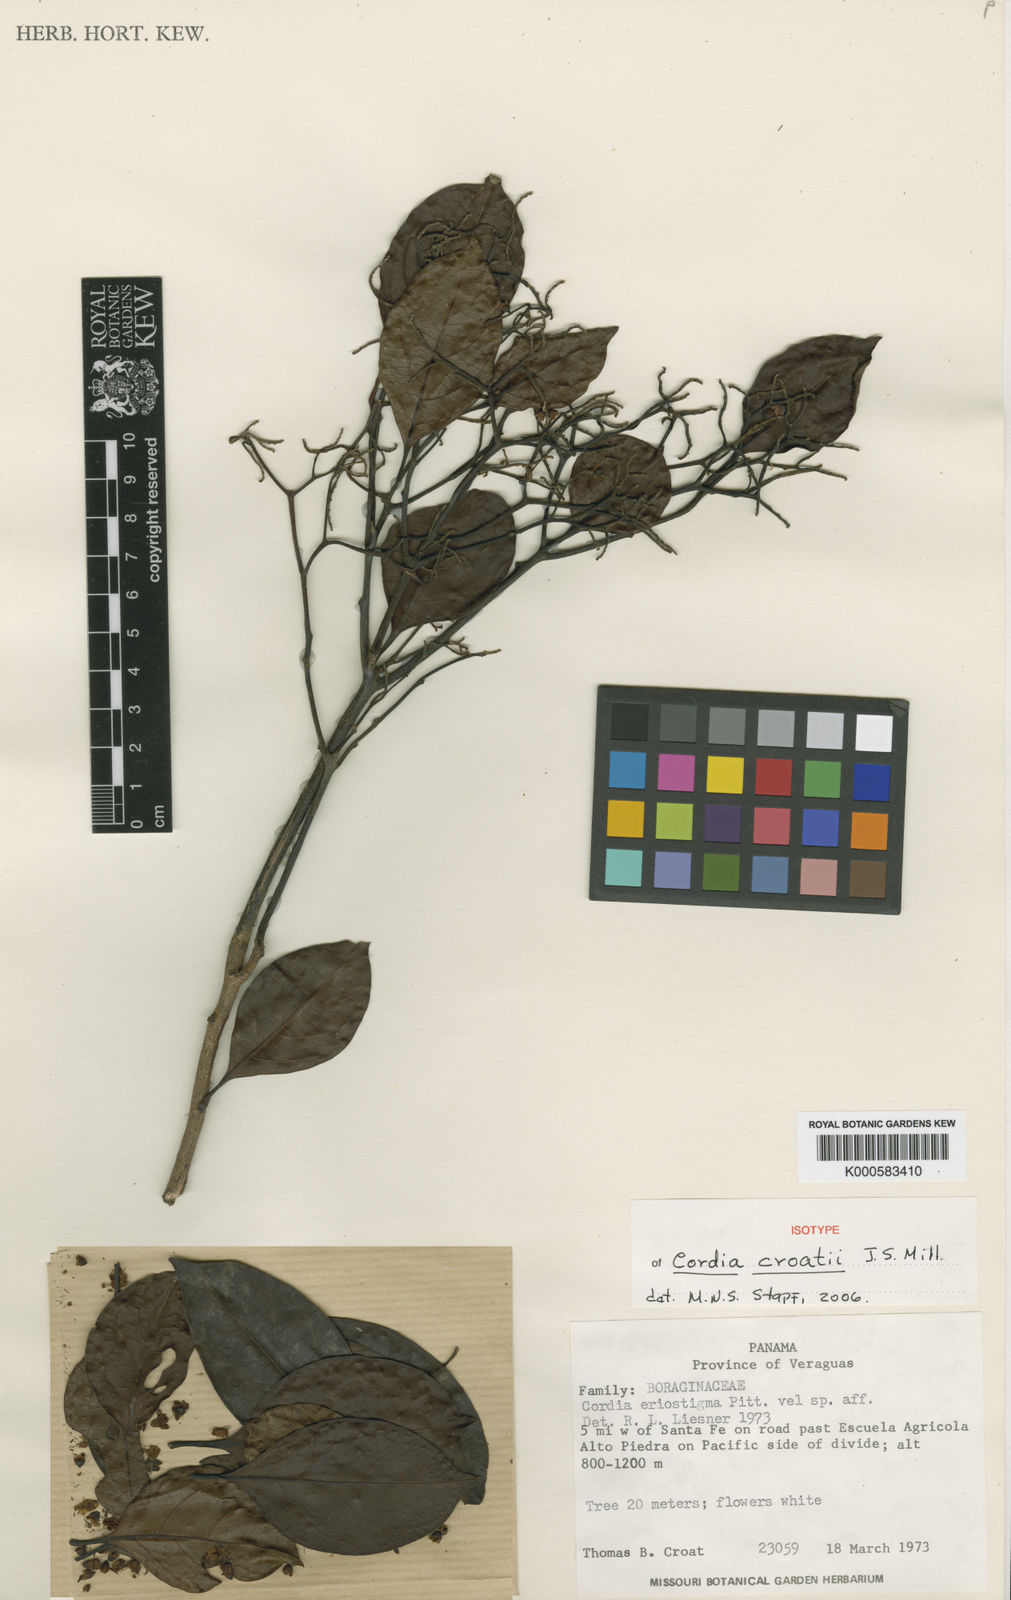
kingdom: Plantae
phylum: Tracheophyta
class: Magnoliopsida
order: Boraginales
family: Cordiaceae
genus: Cordia
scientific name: Cordia croatii
